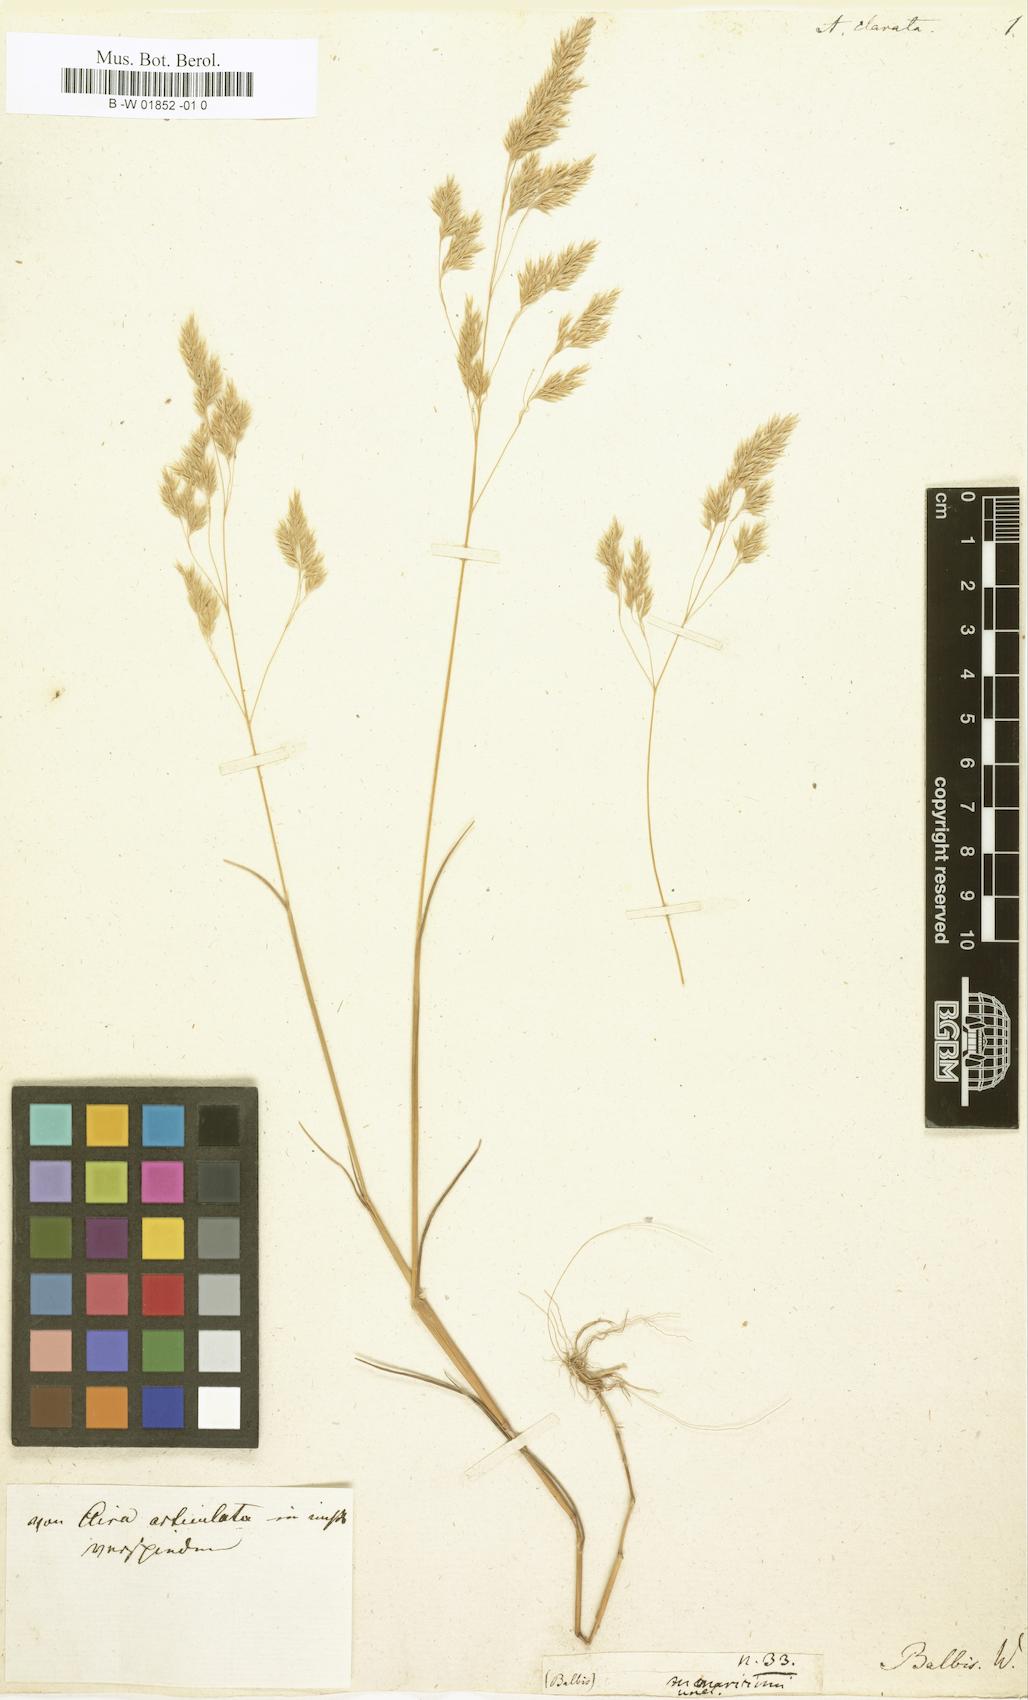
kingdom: Plantae
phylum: Tracheophyta
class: Liliopsida
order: Poales
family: Poaceae
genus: Corynephorus
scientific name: Corynephorus articulatus
